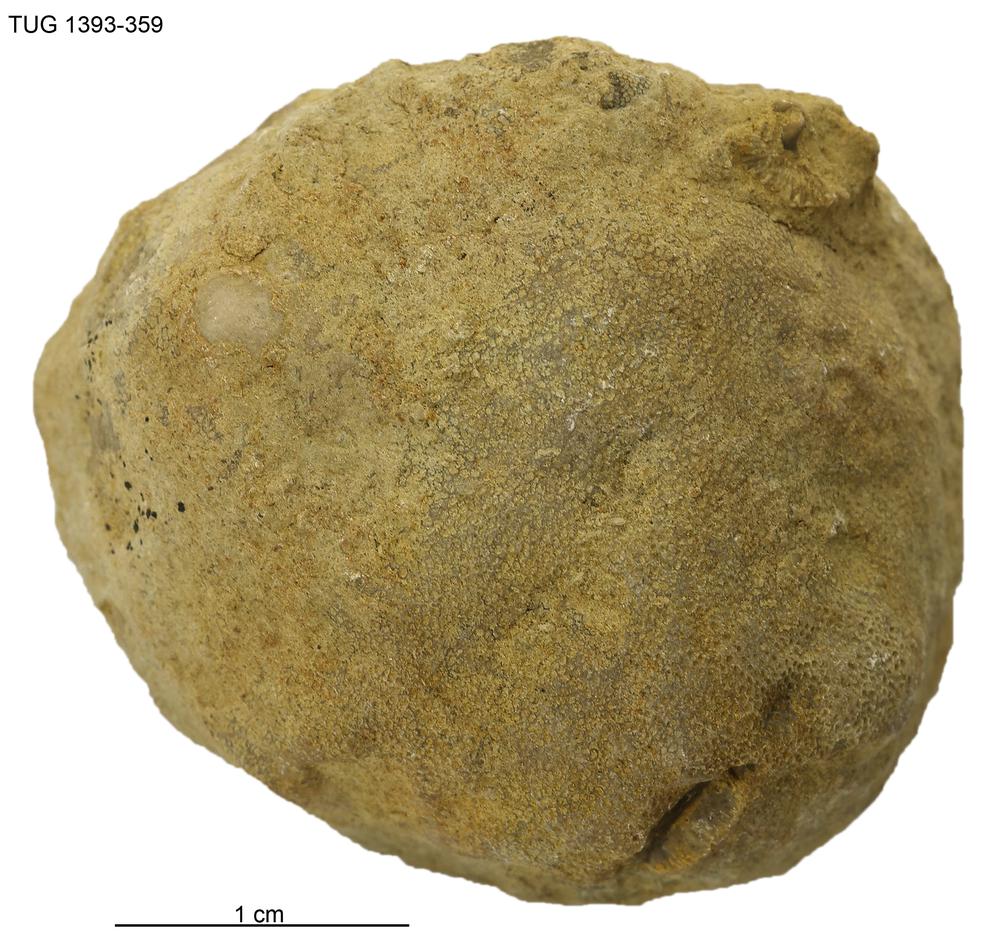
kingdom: Animalia
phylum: Bryozoa
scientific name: Bryozoa
